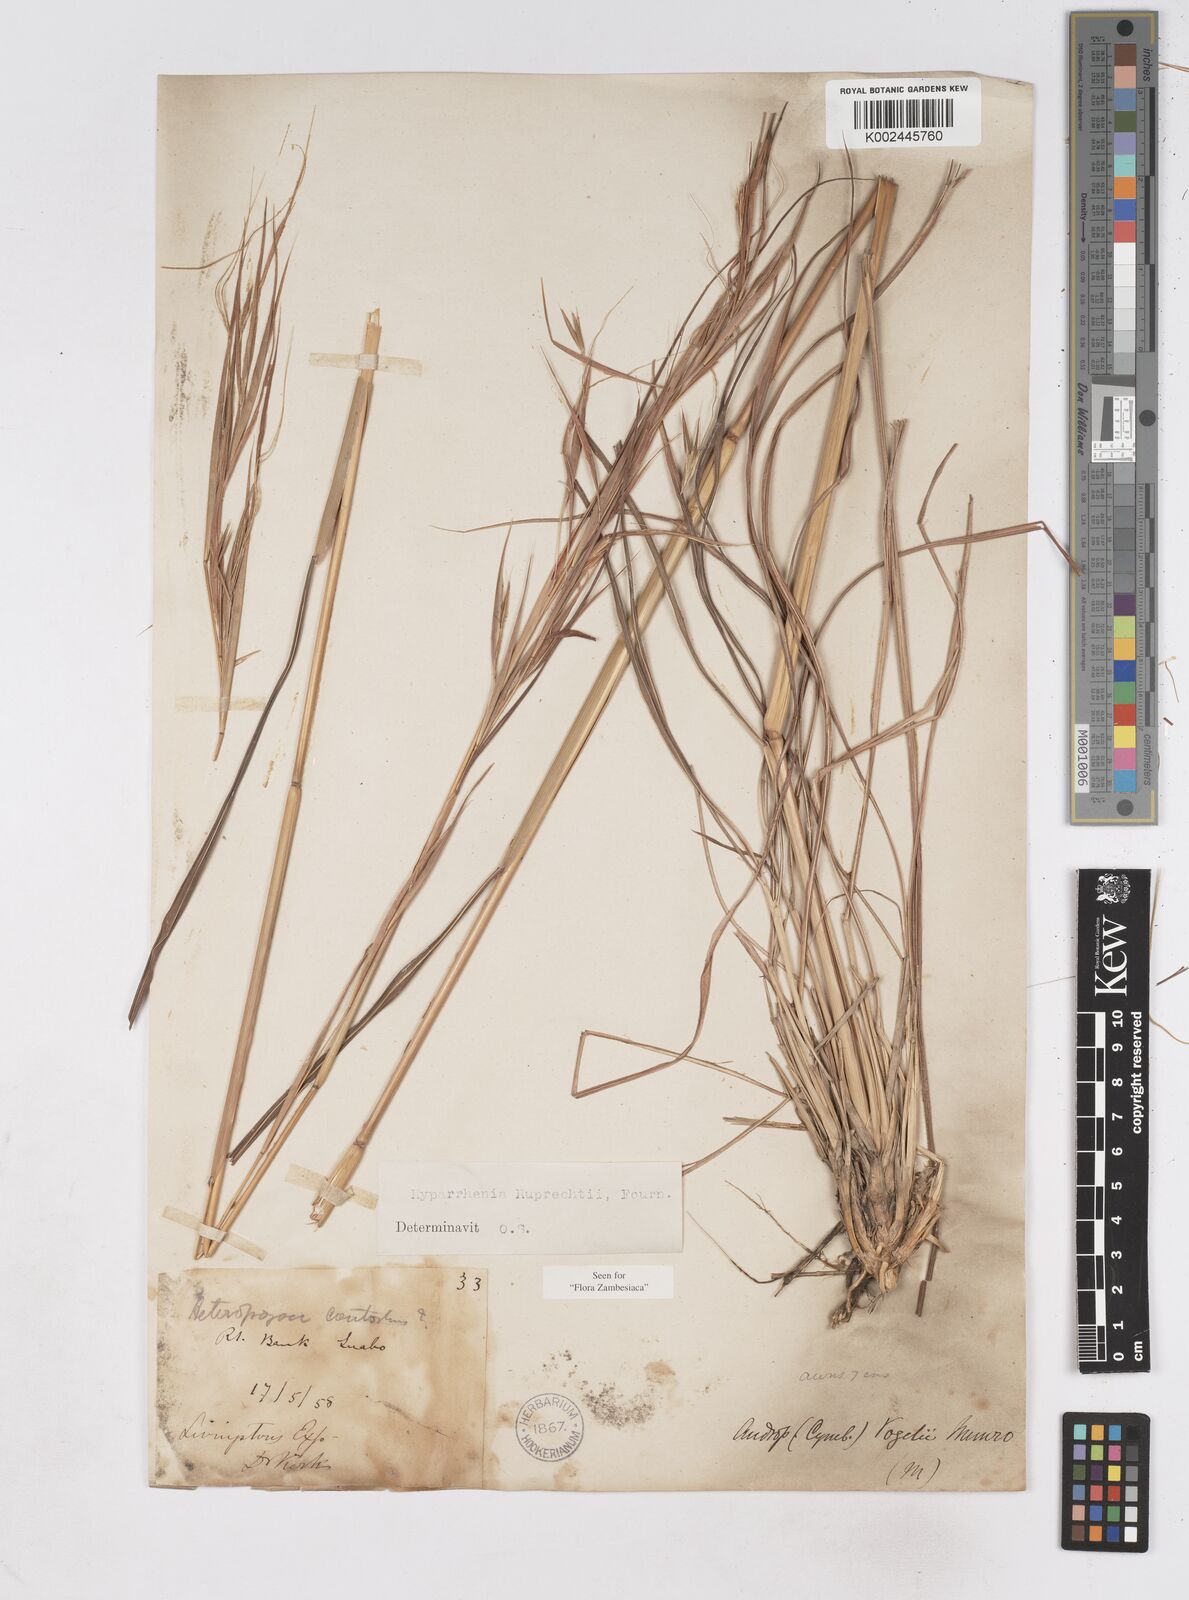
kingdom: Plantae
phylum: Tracheophyta
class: Liliopsida
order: Poales
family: Poaceae
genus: Hyperthelia
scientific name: Hyperthelia dissoluta
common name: Yellow thatching grass
